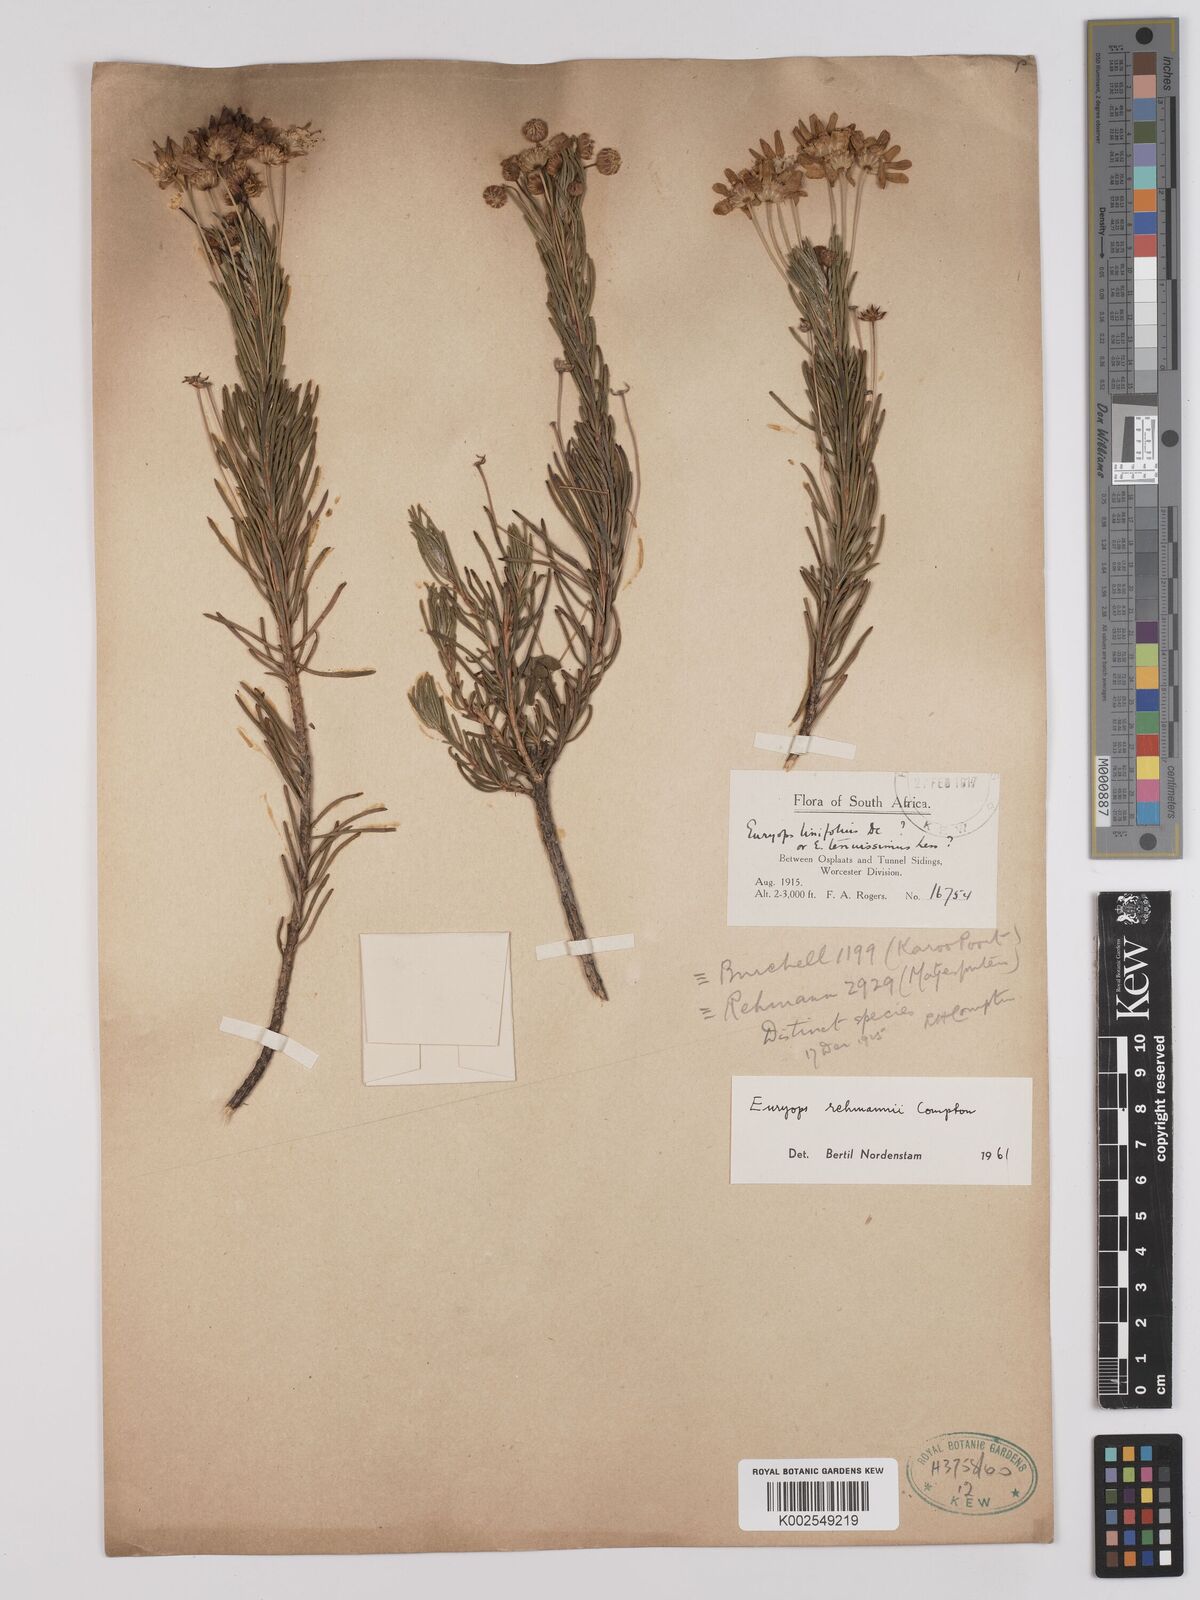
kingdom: Plantae
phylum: Tracheophyta
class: Magnoliopsida
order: Asterales
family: Asteraceae
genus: Euryops
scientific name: Euryops rehmannii
